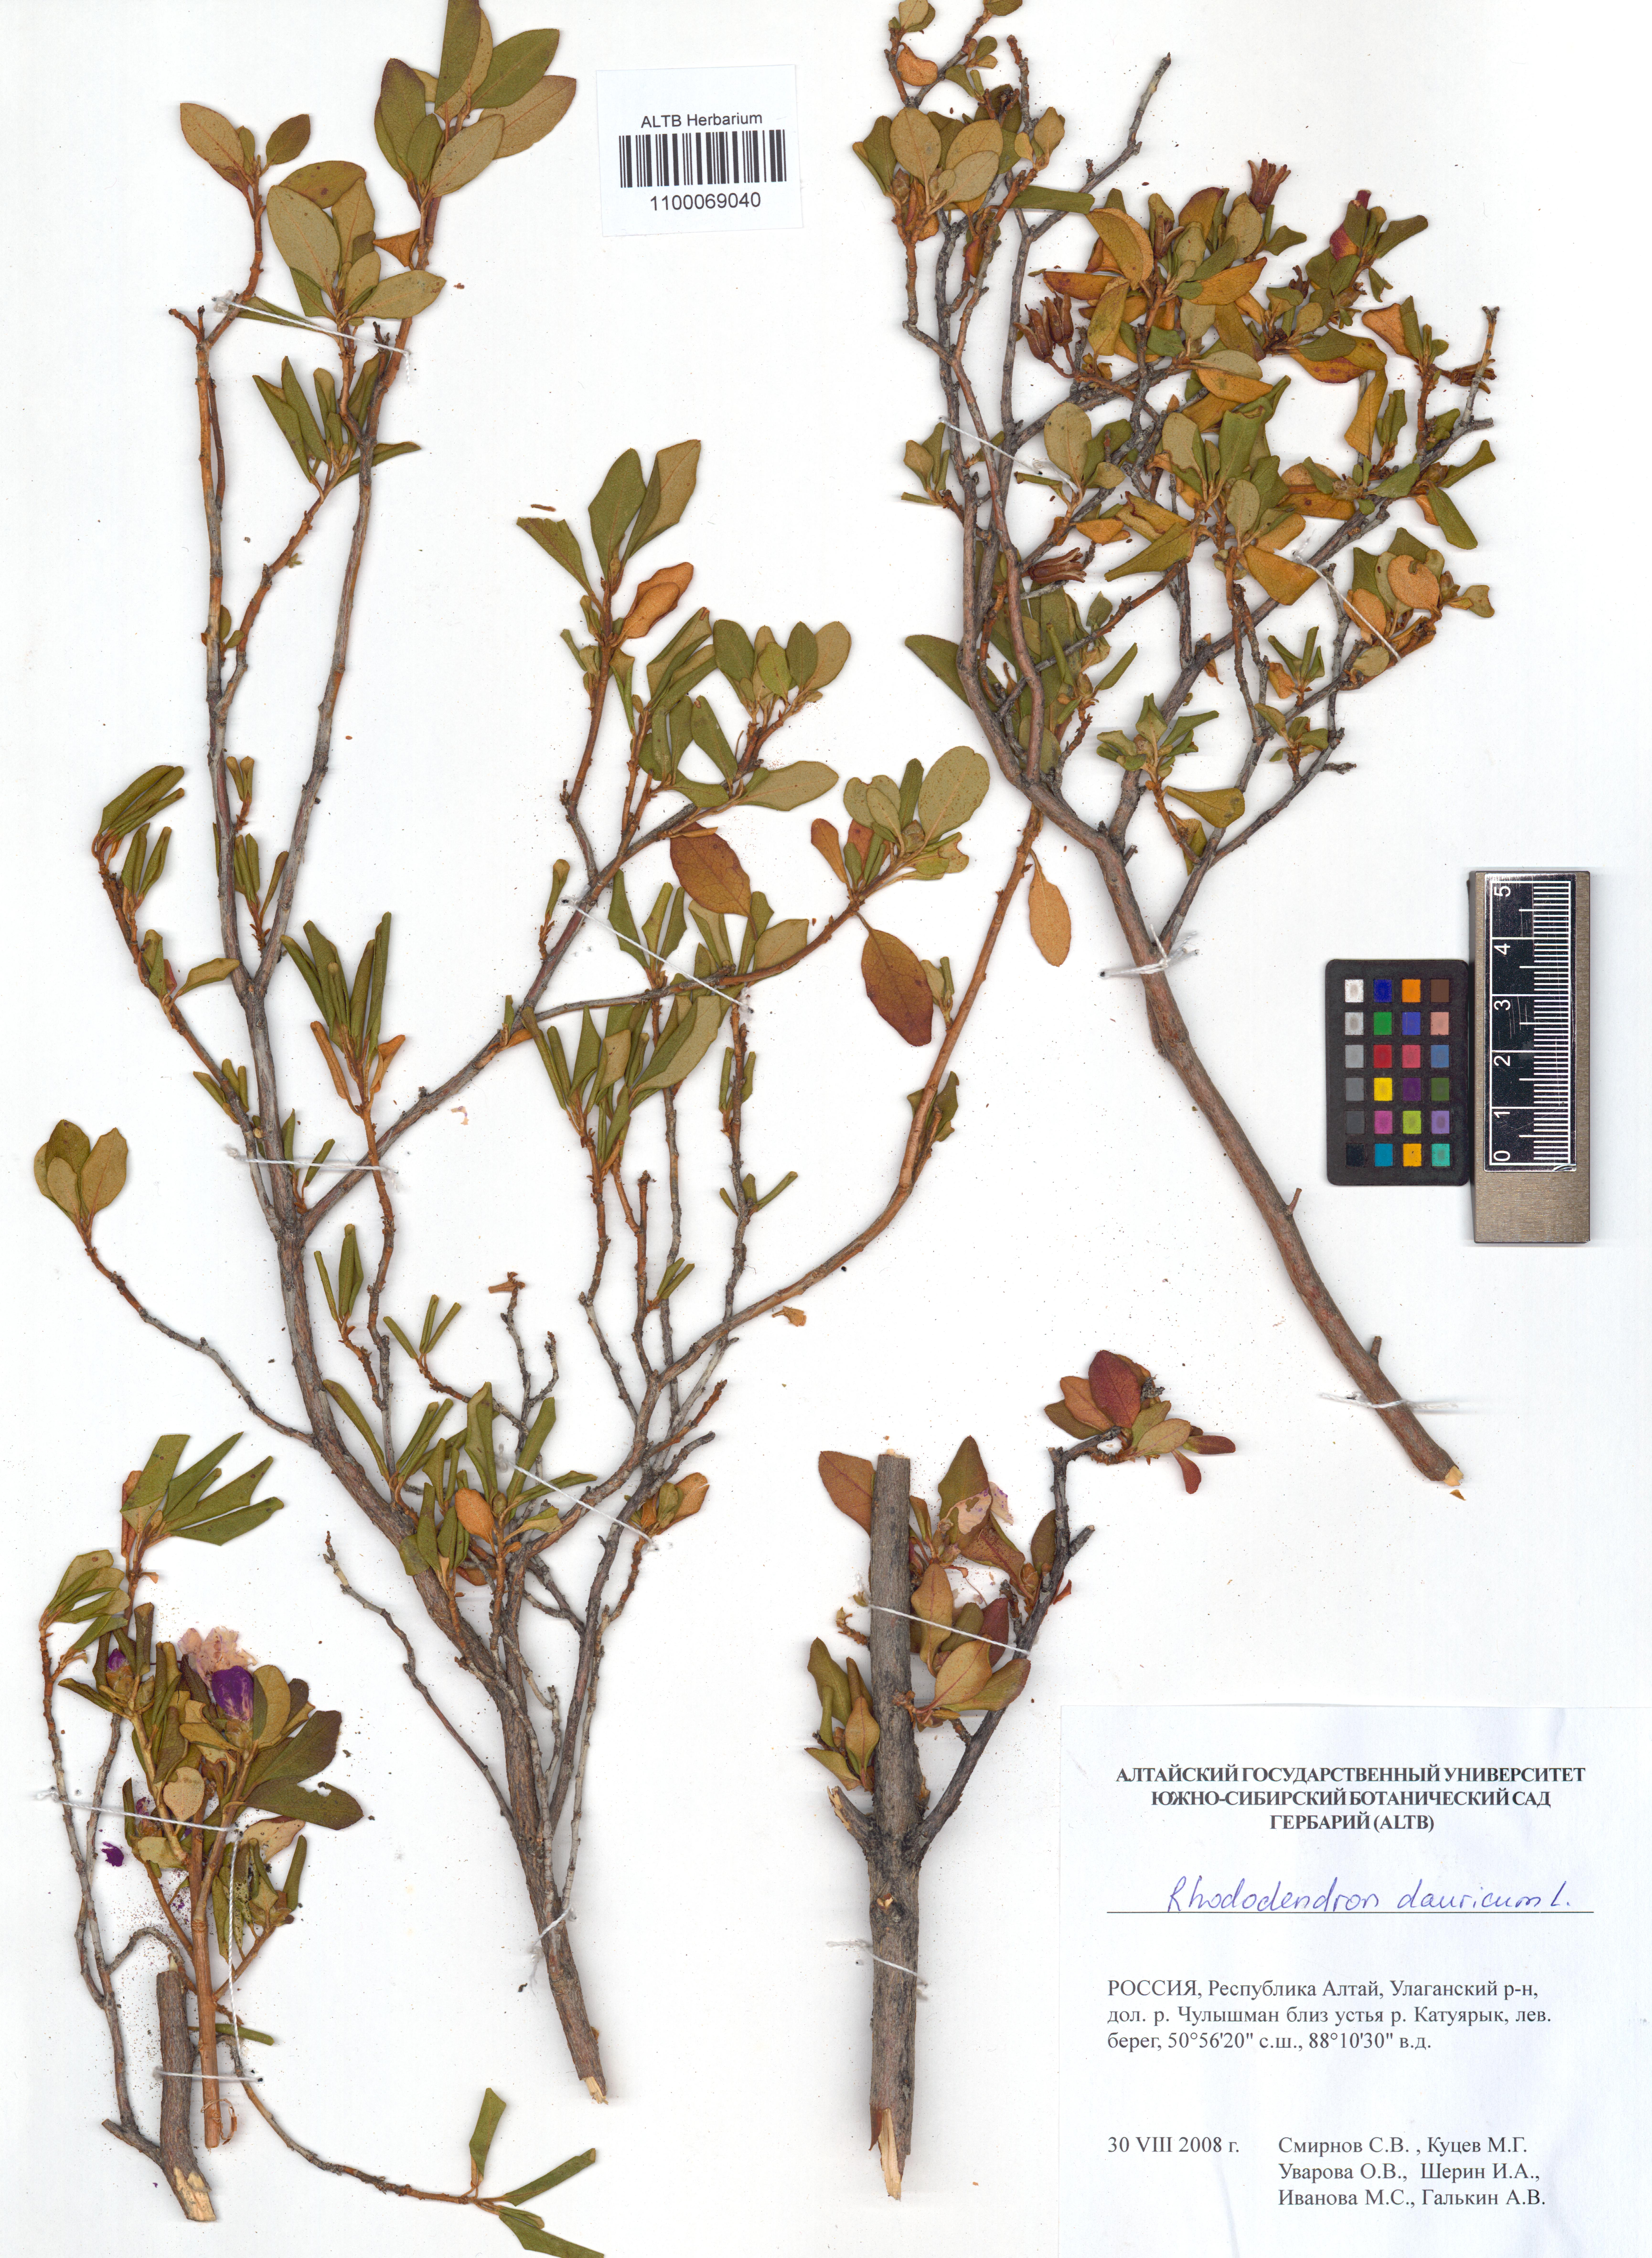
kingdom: Plantae
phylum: Tracheophyta
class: Magnoliopsida
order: Ericales
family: Ericaceae
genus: Rhododendron
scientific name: Rhododendron dauricum
